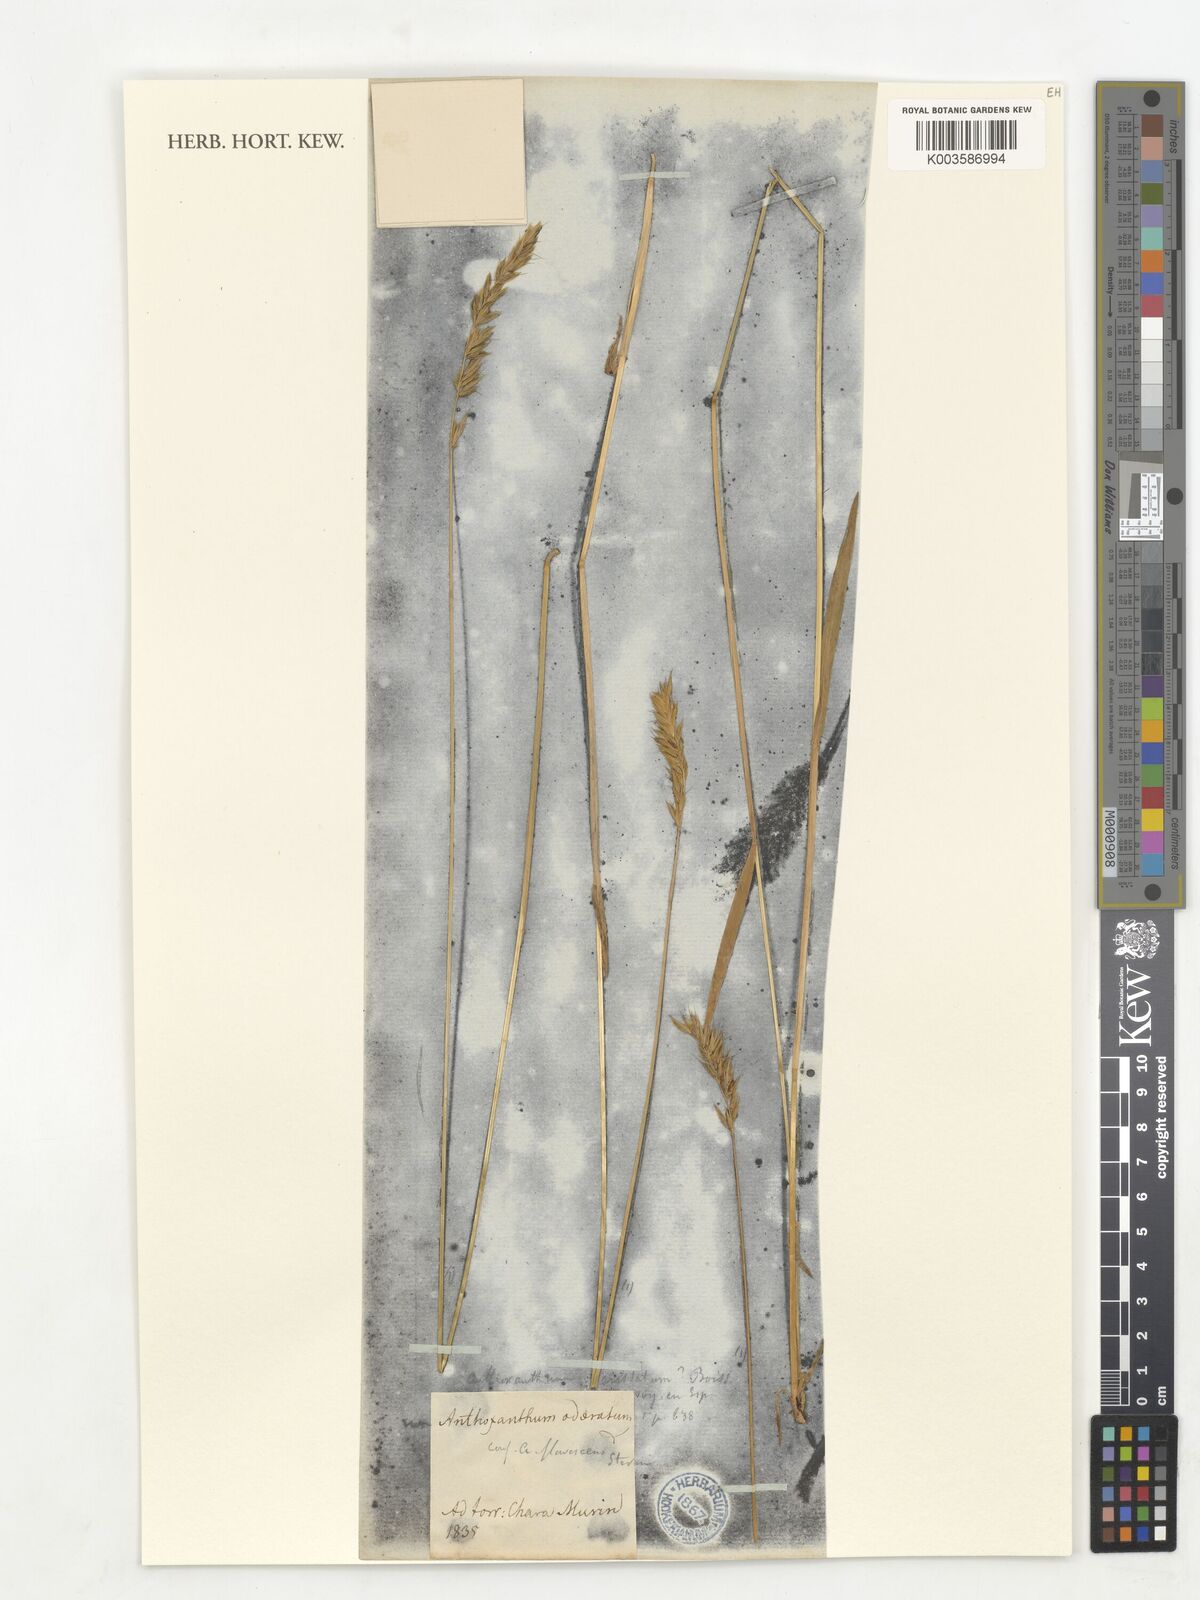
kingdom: Plantae
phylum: Tracheophyta
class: Liliopsida
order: Poales
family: Poaceae
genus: Anthoxanthum
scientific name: Anthoxanthum odoratum
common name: Sweet vernalgrass
